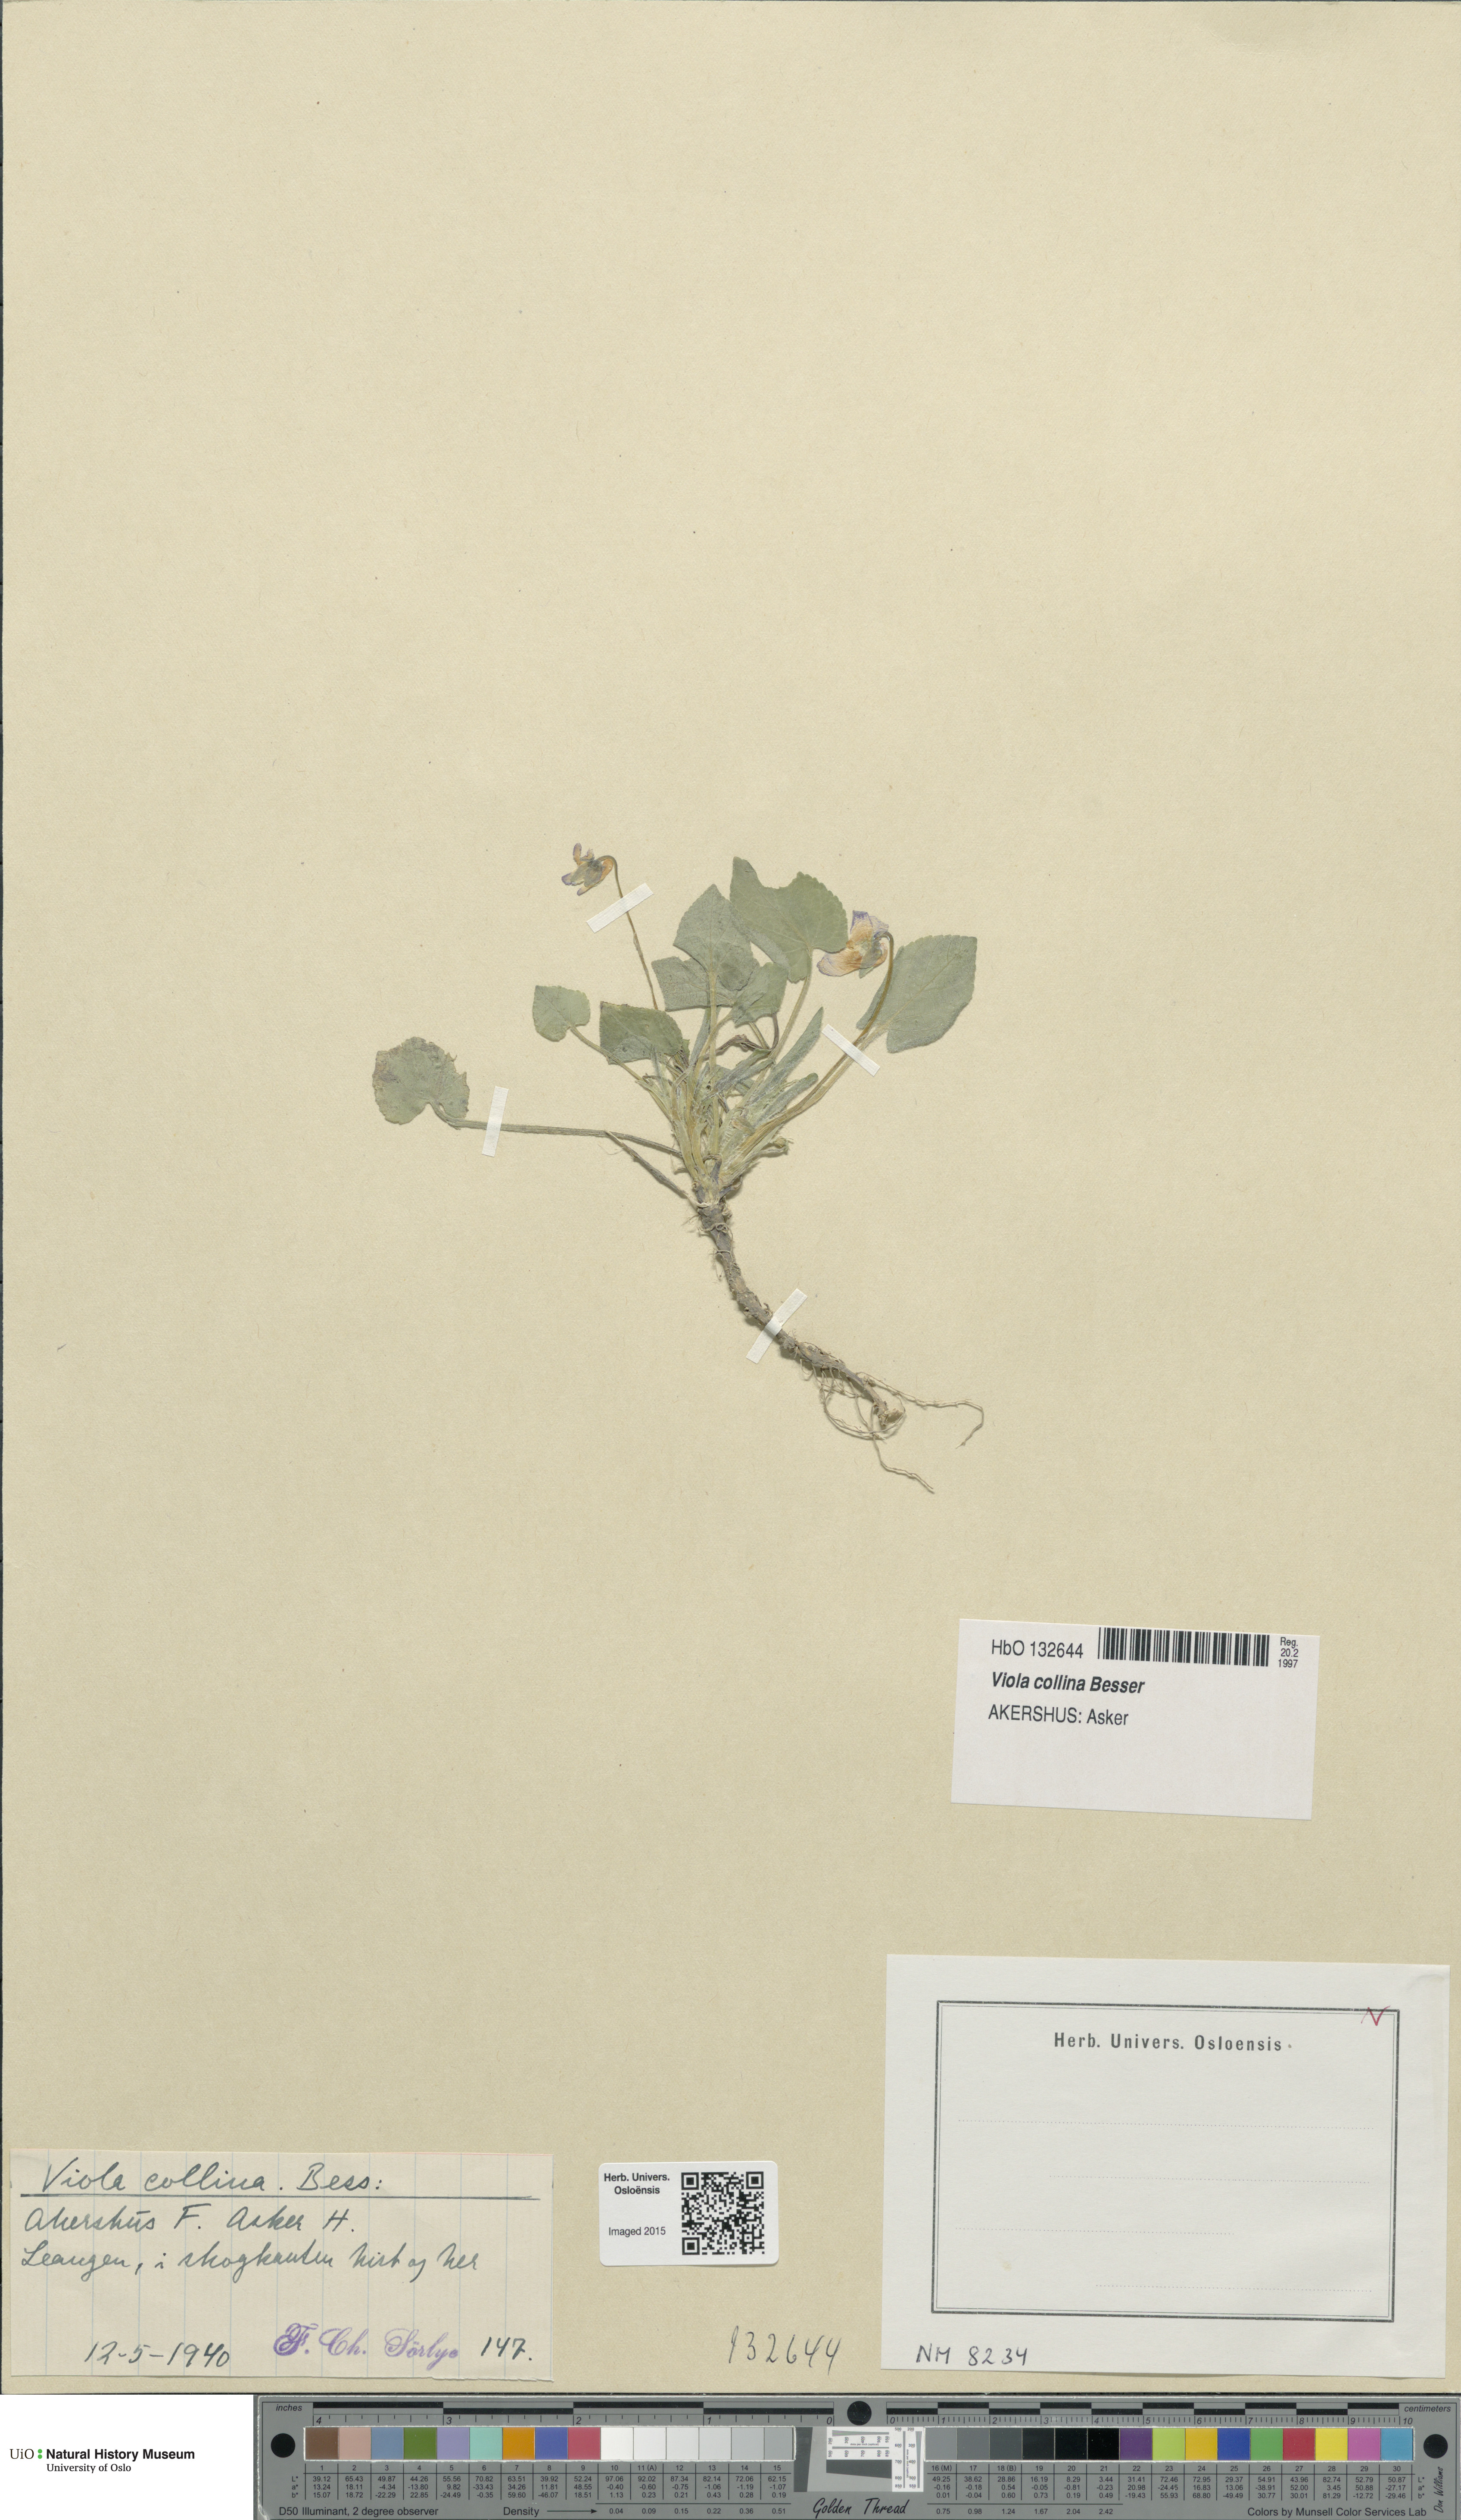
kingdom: Plantae
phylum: Tracheophyta
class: Magnoliopsida
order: Malpighiales
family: Violaceae
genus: Viola
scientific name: Viola collina
